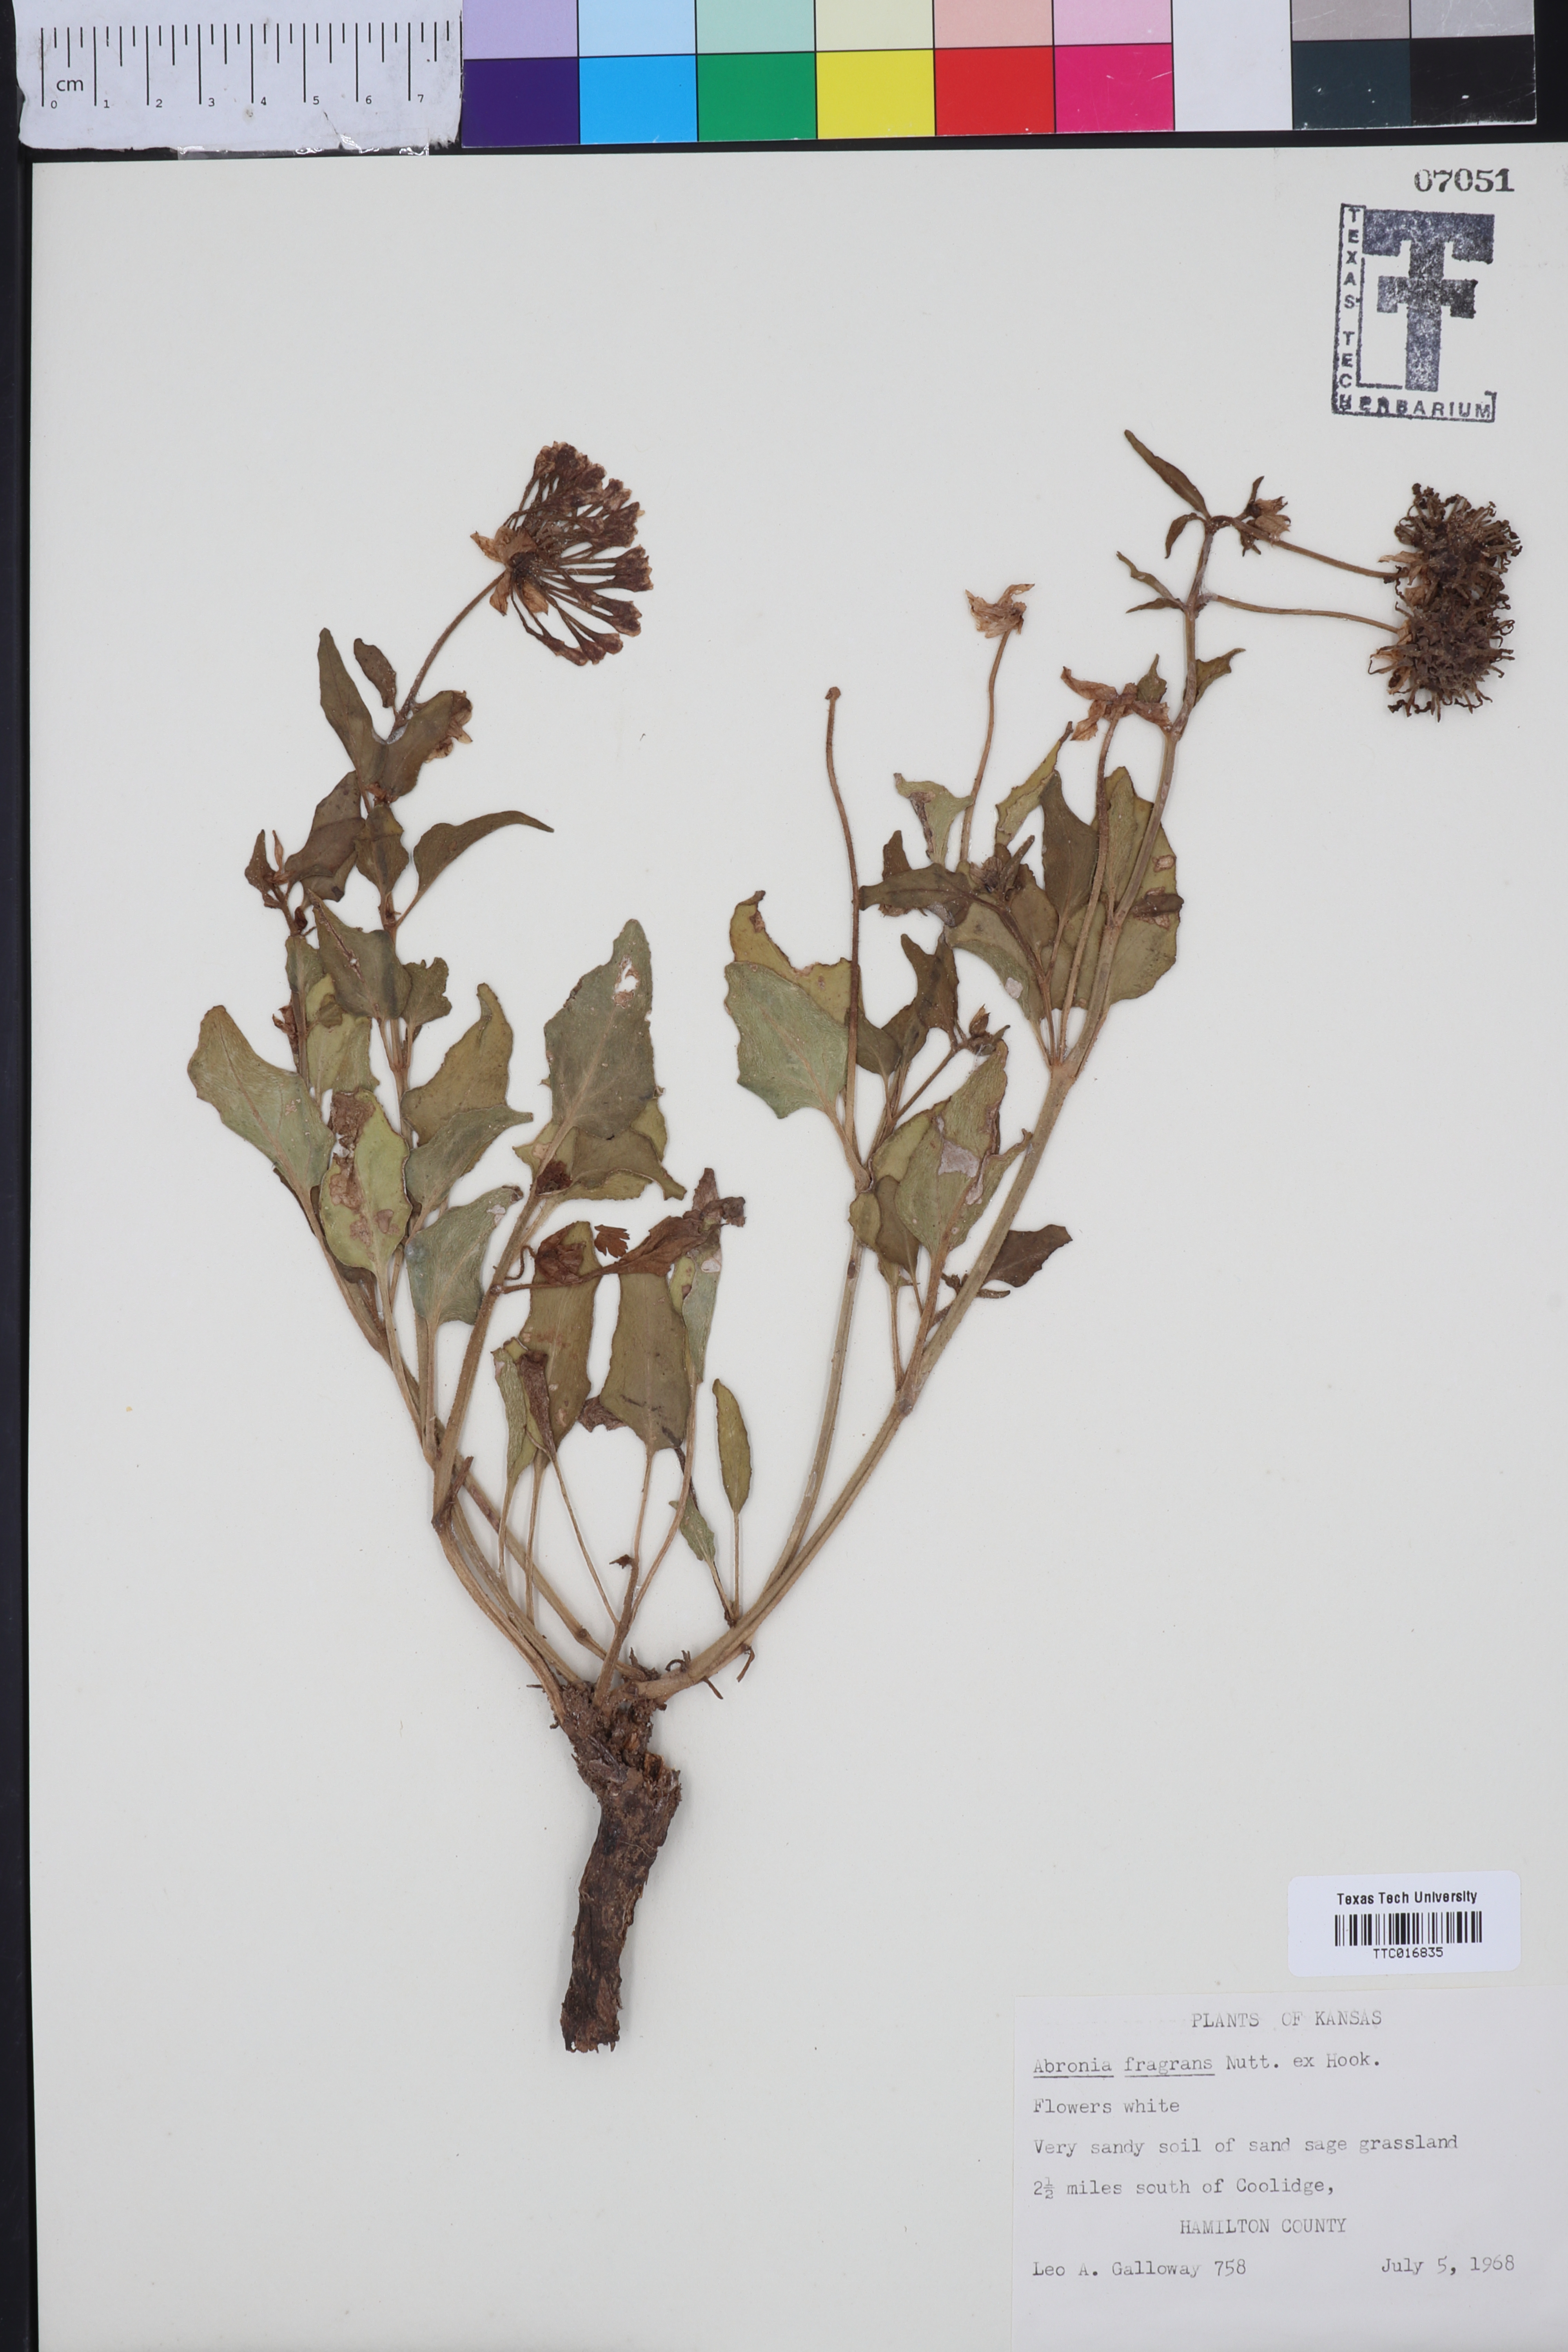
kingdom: Plantae
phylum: Tracheophyta
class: Magnoliopsida
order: Caryophyllales
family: Nyctaginaceae
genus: Abronia
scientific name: Abronia fragrans
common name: Fragrant sand-verbena
